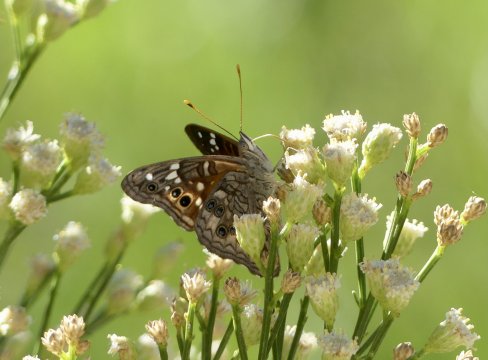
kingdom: Animalia
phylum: Arthropoda
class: Insecta
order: Lepidoptera
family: Nymphalidae
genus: Asterocampa
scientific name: Asterocampa leilia
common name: Empress Leilia
